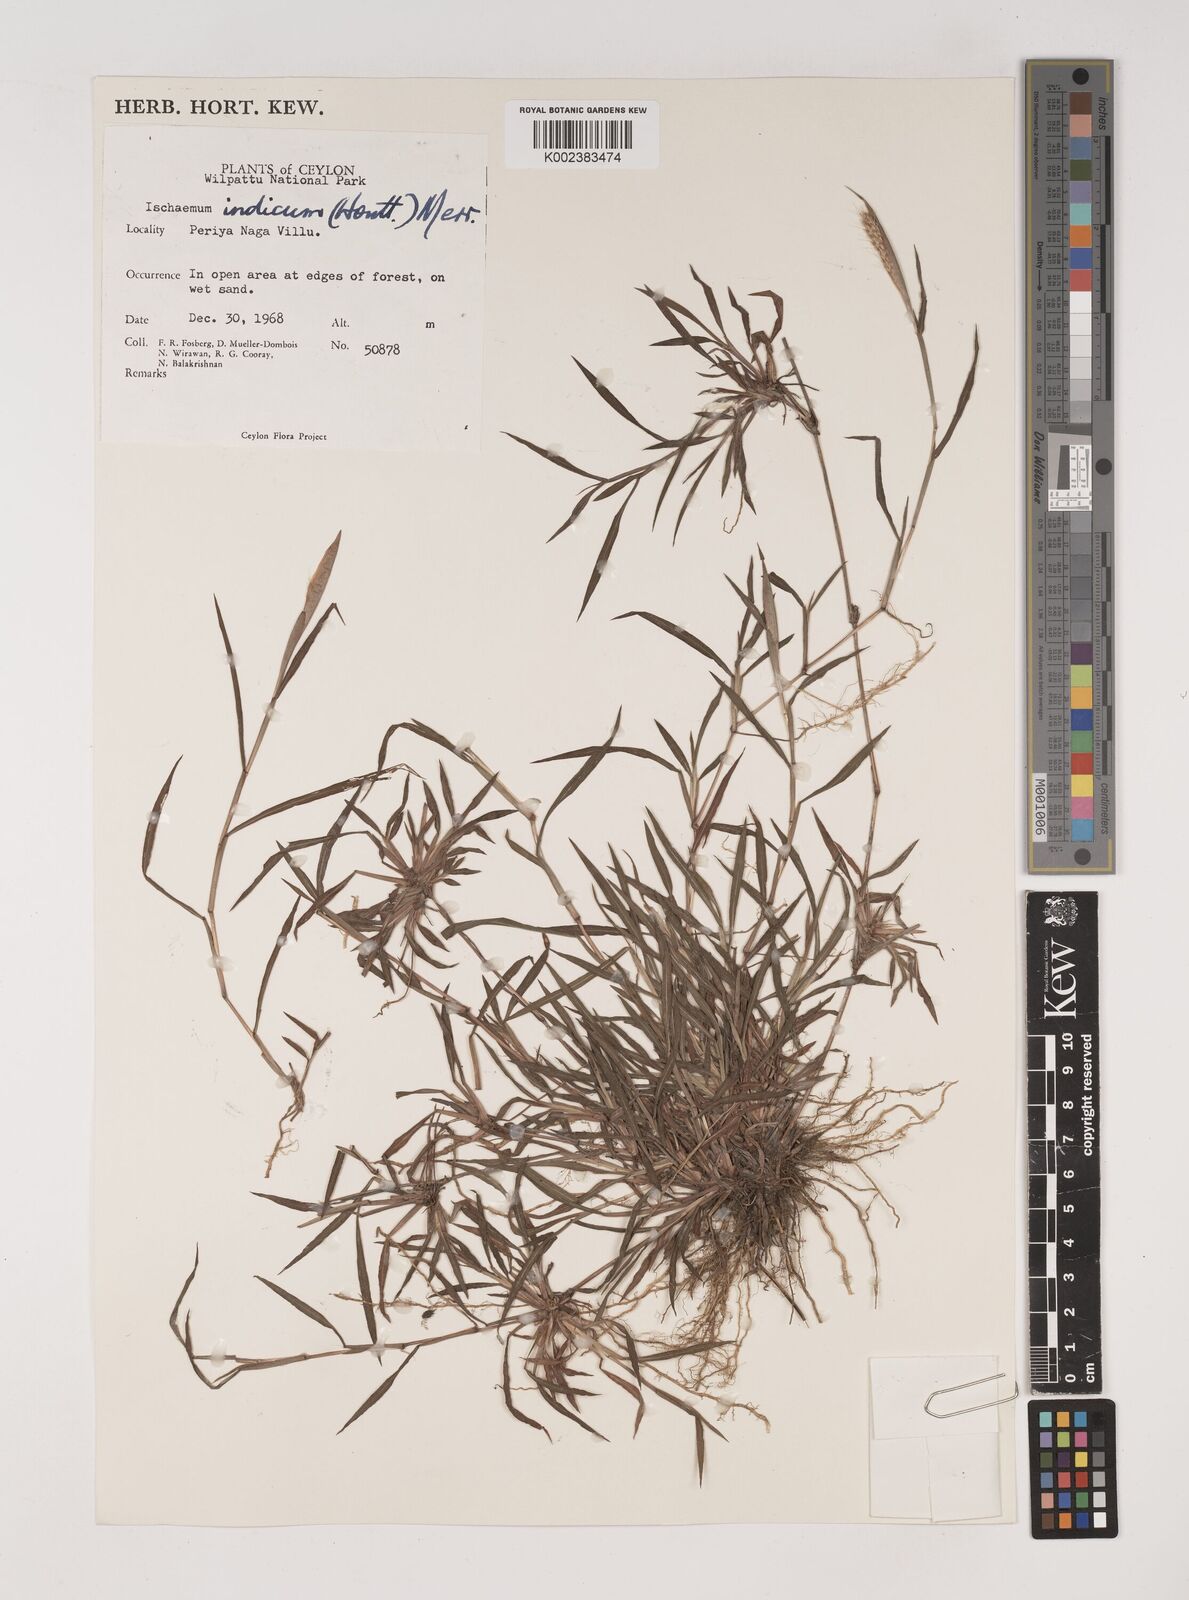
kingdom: Plantae
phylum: Tracheophyta
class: Liliopsida
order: Poales
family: Poaceae
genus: Polytrias
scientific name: Polytrias indica
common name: Indian murainagrass
